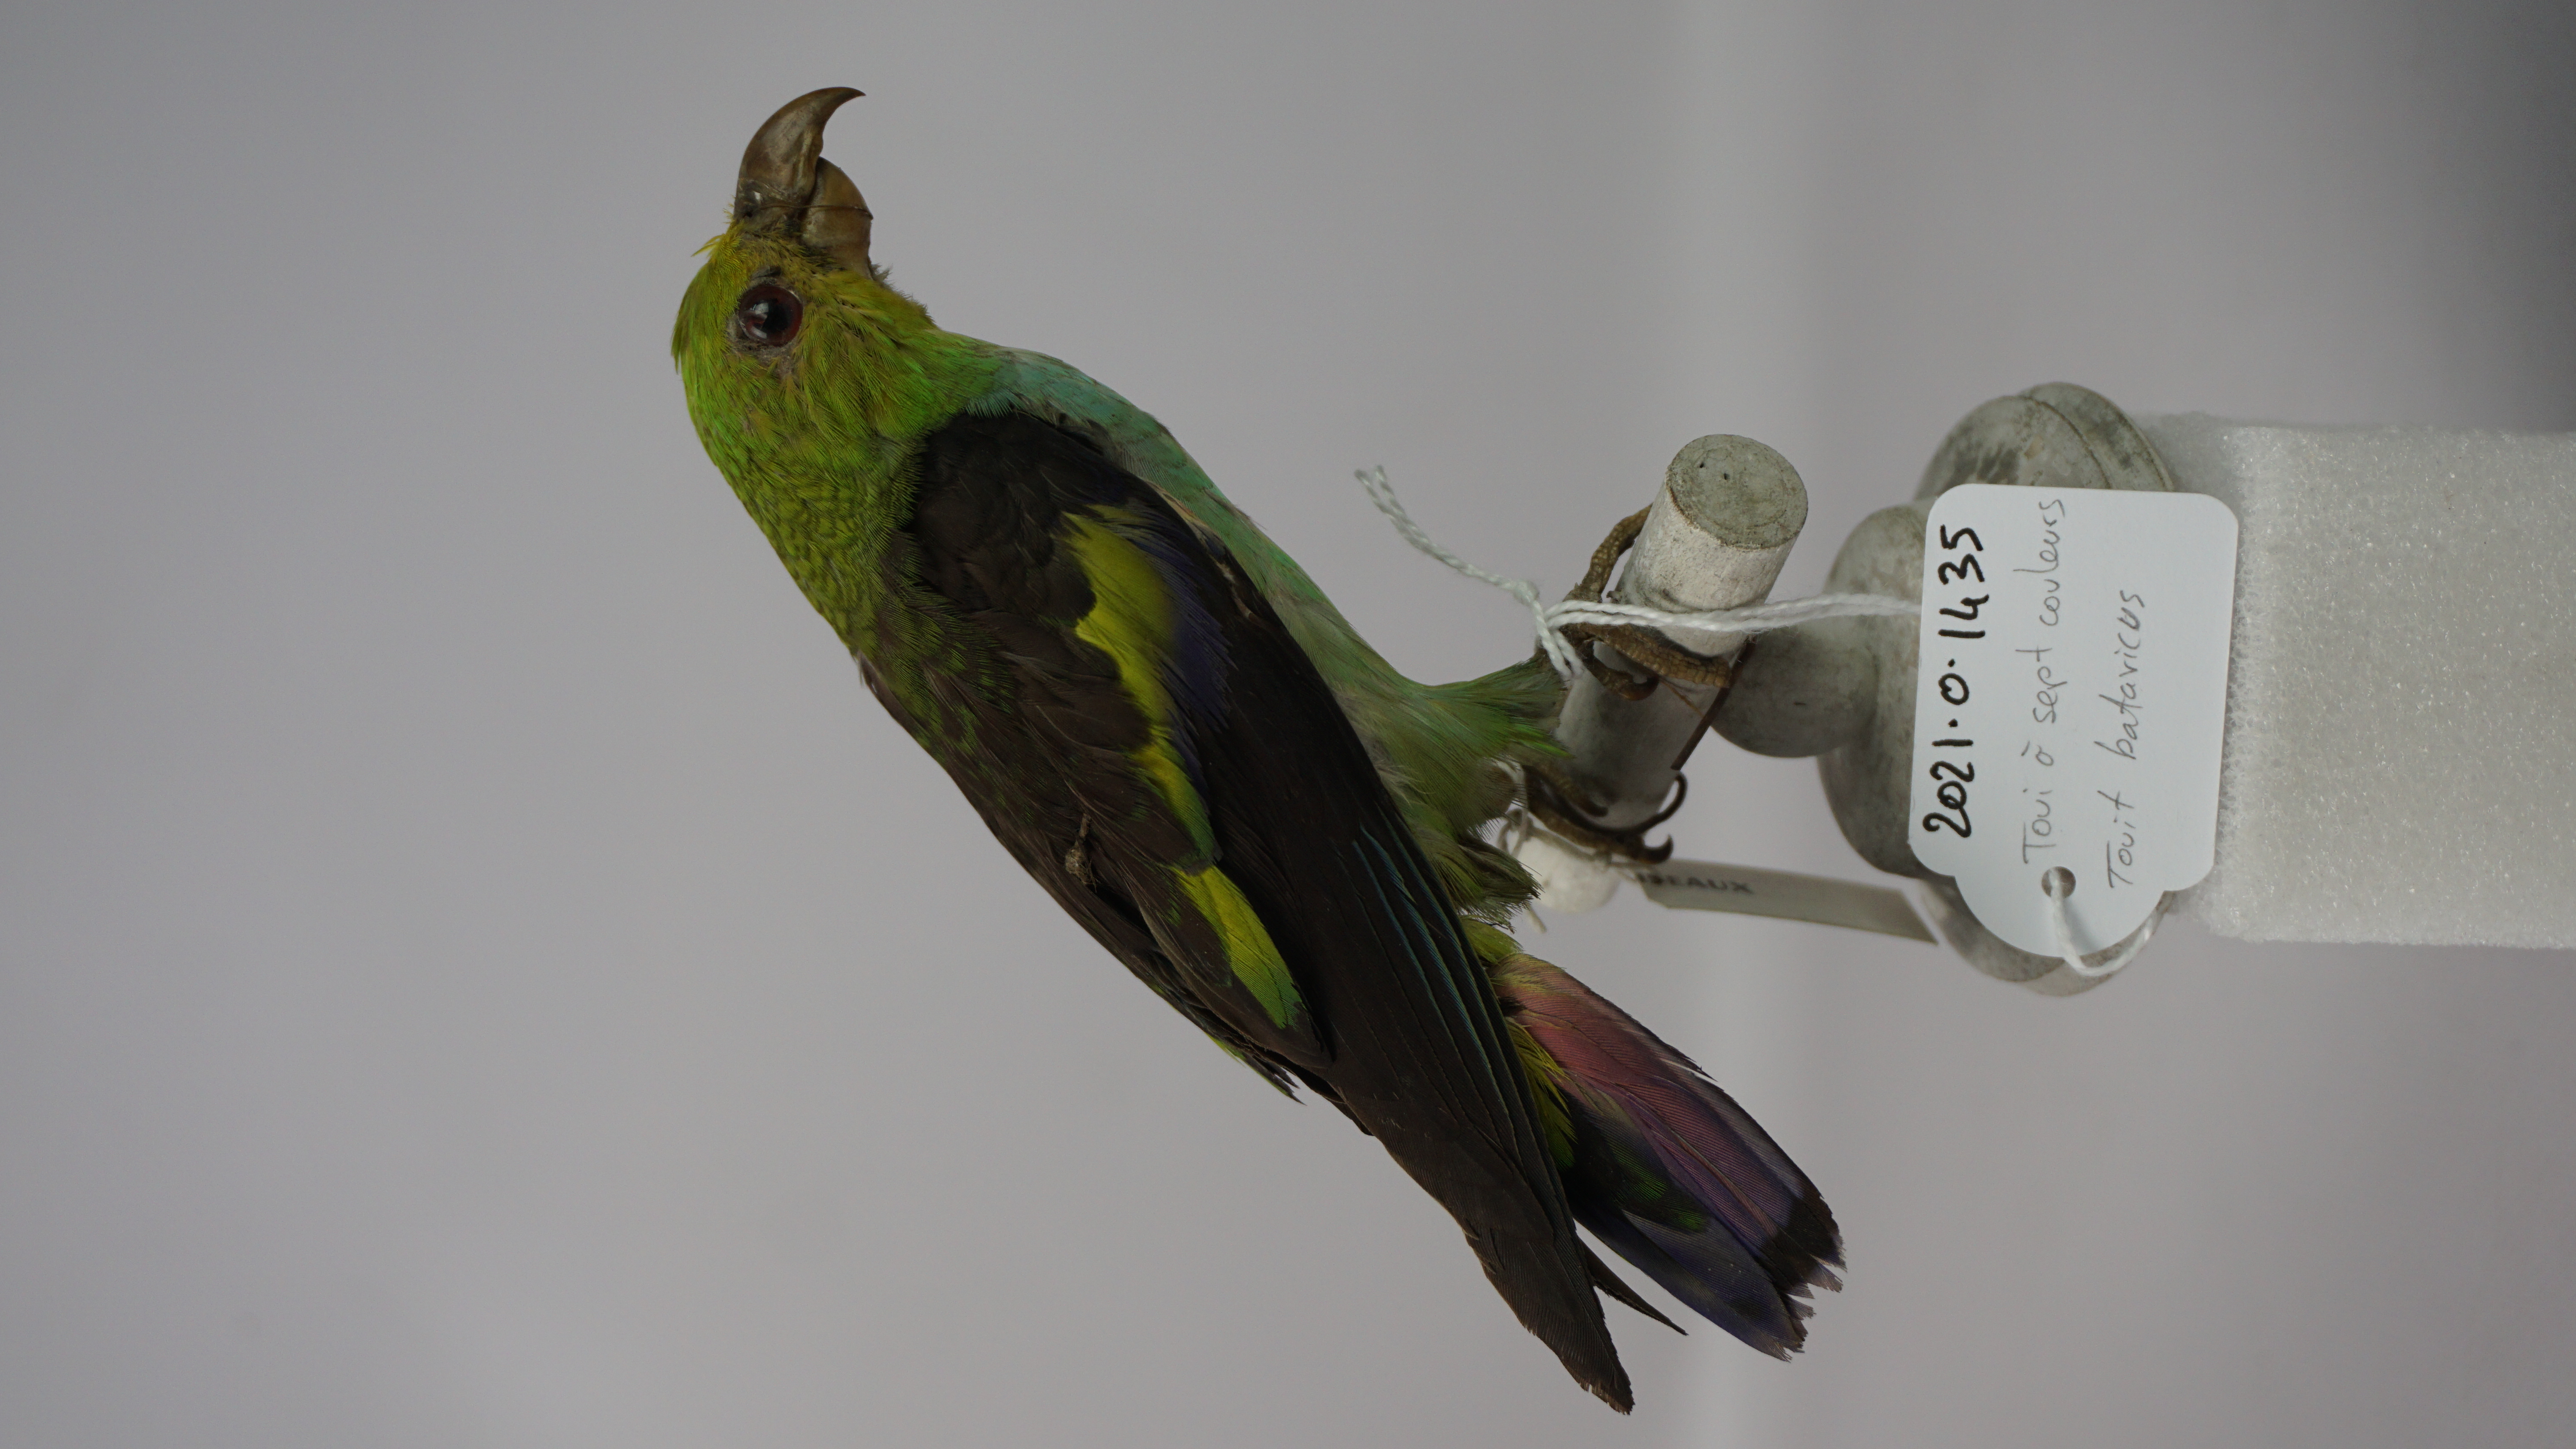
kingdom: Animalia
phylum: Chordata
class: Aves
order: Psittaciformes
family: Psittacidae
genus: Touit
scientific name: Touit batavicus
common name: Lilac-tailed parrotlet
